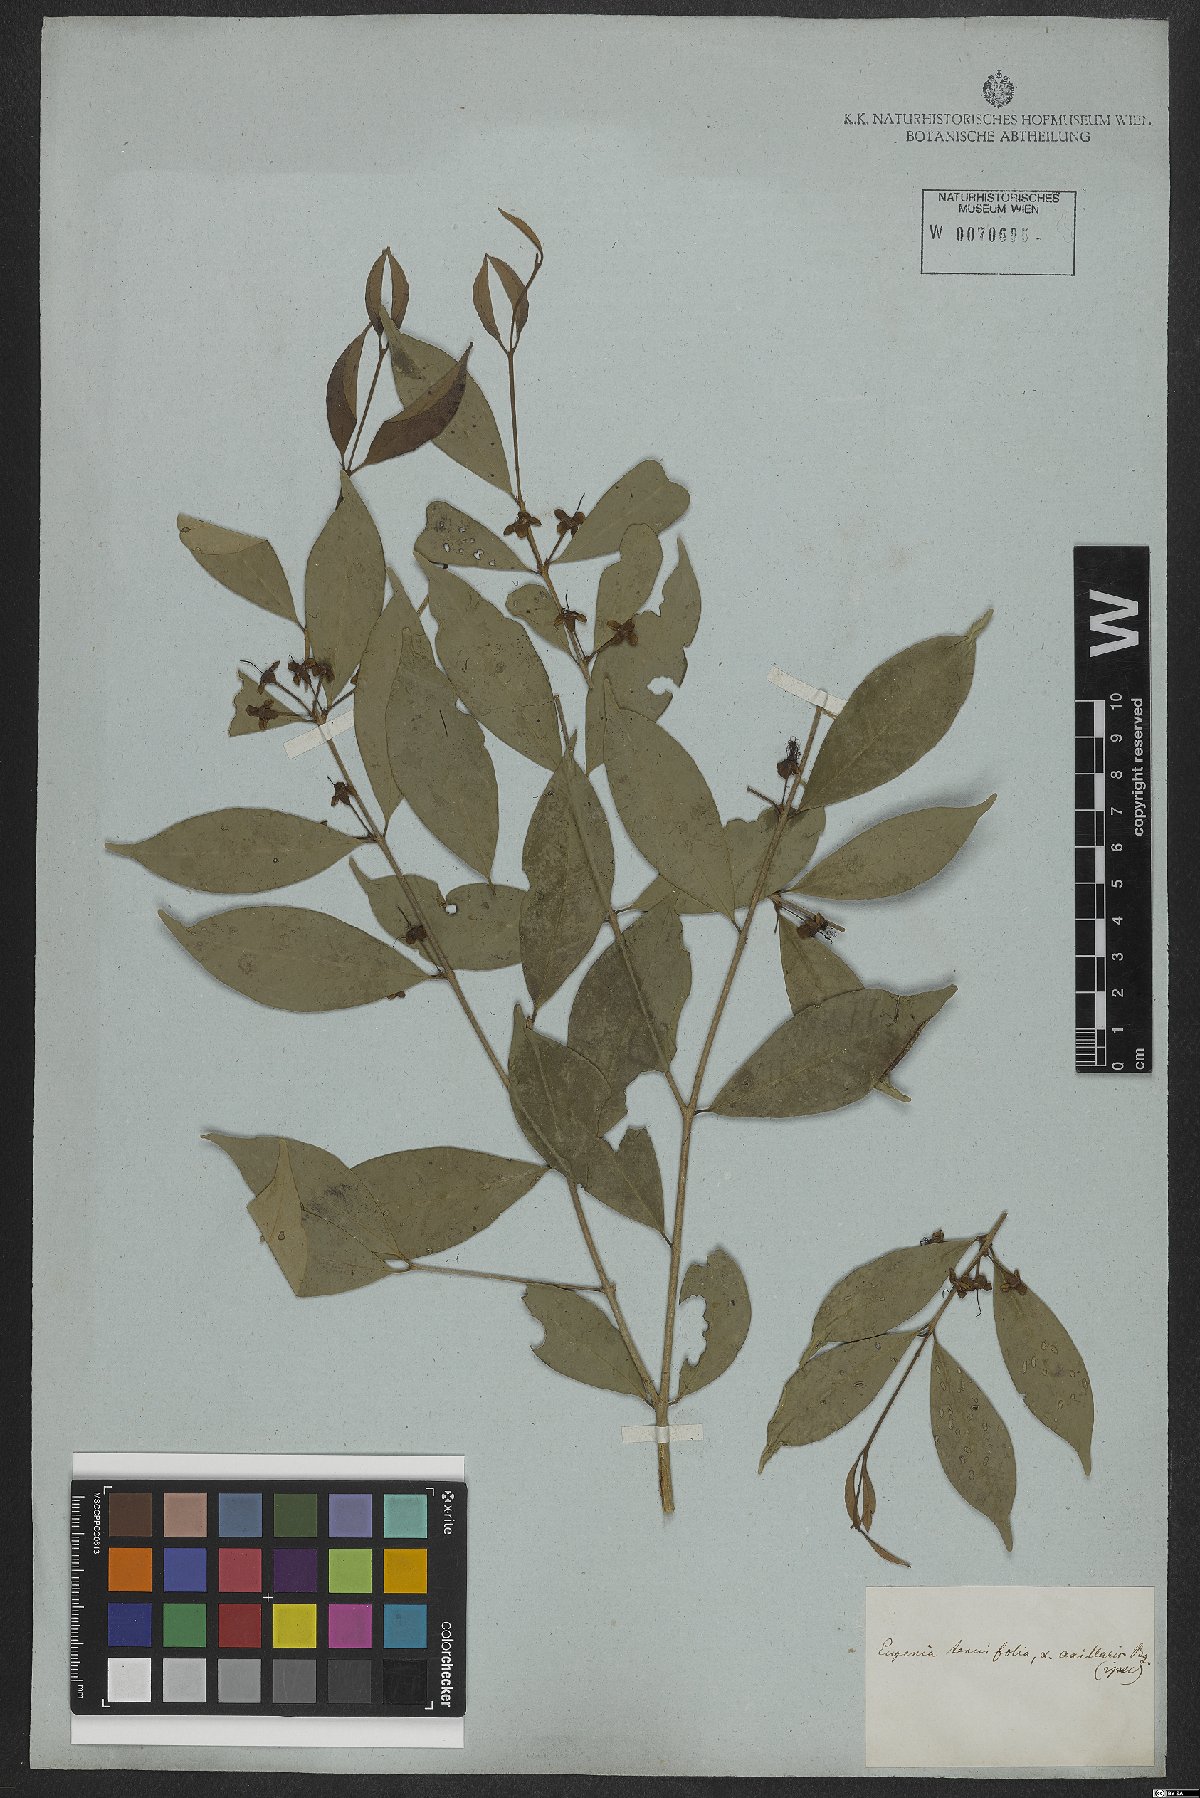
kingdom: Plantae
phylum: Tracheophyta
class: Magnoliopsida
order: Myrtales
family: Myrtaceae
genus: Eugenia
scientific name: Eugenia decussata
